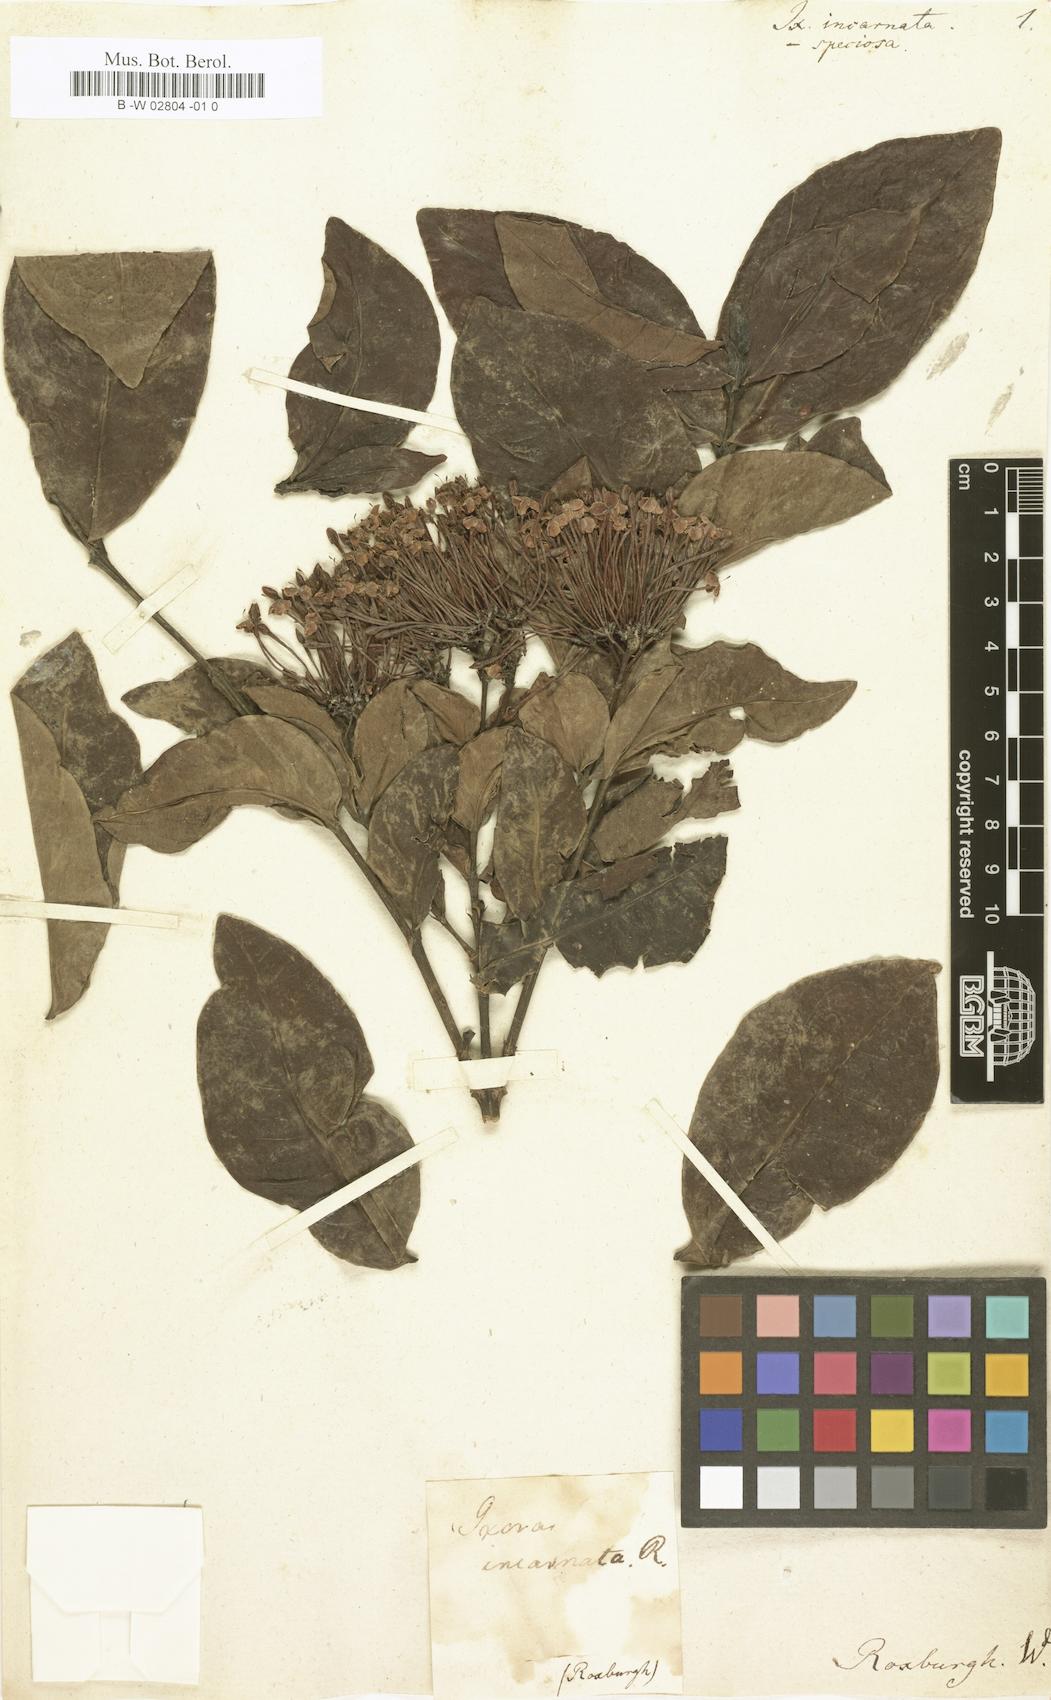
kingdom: Plantae
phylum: Tracheophyta
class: Magnoliopsida
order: Gentianales
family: Rubiaceae
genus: Ixora
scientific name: Ixora
